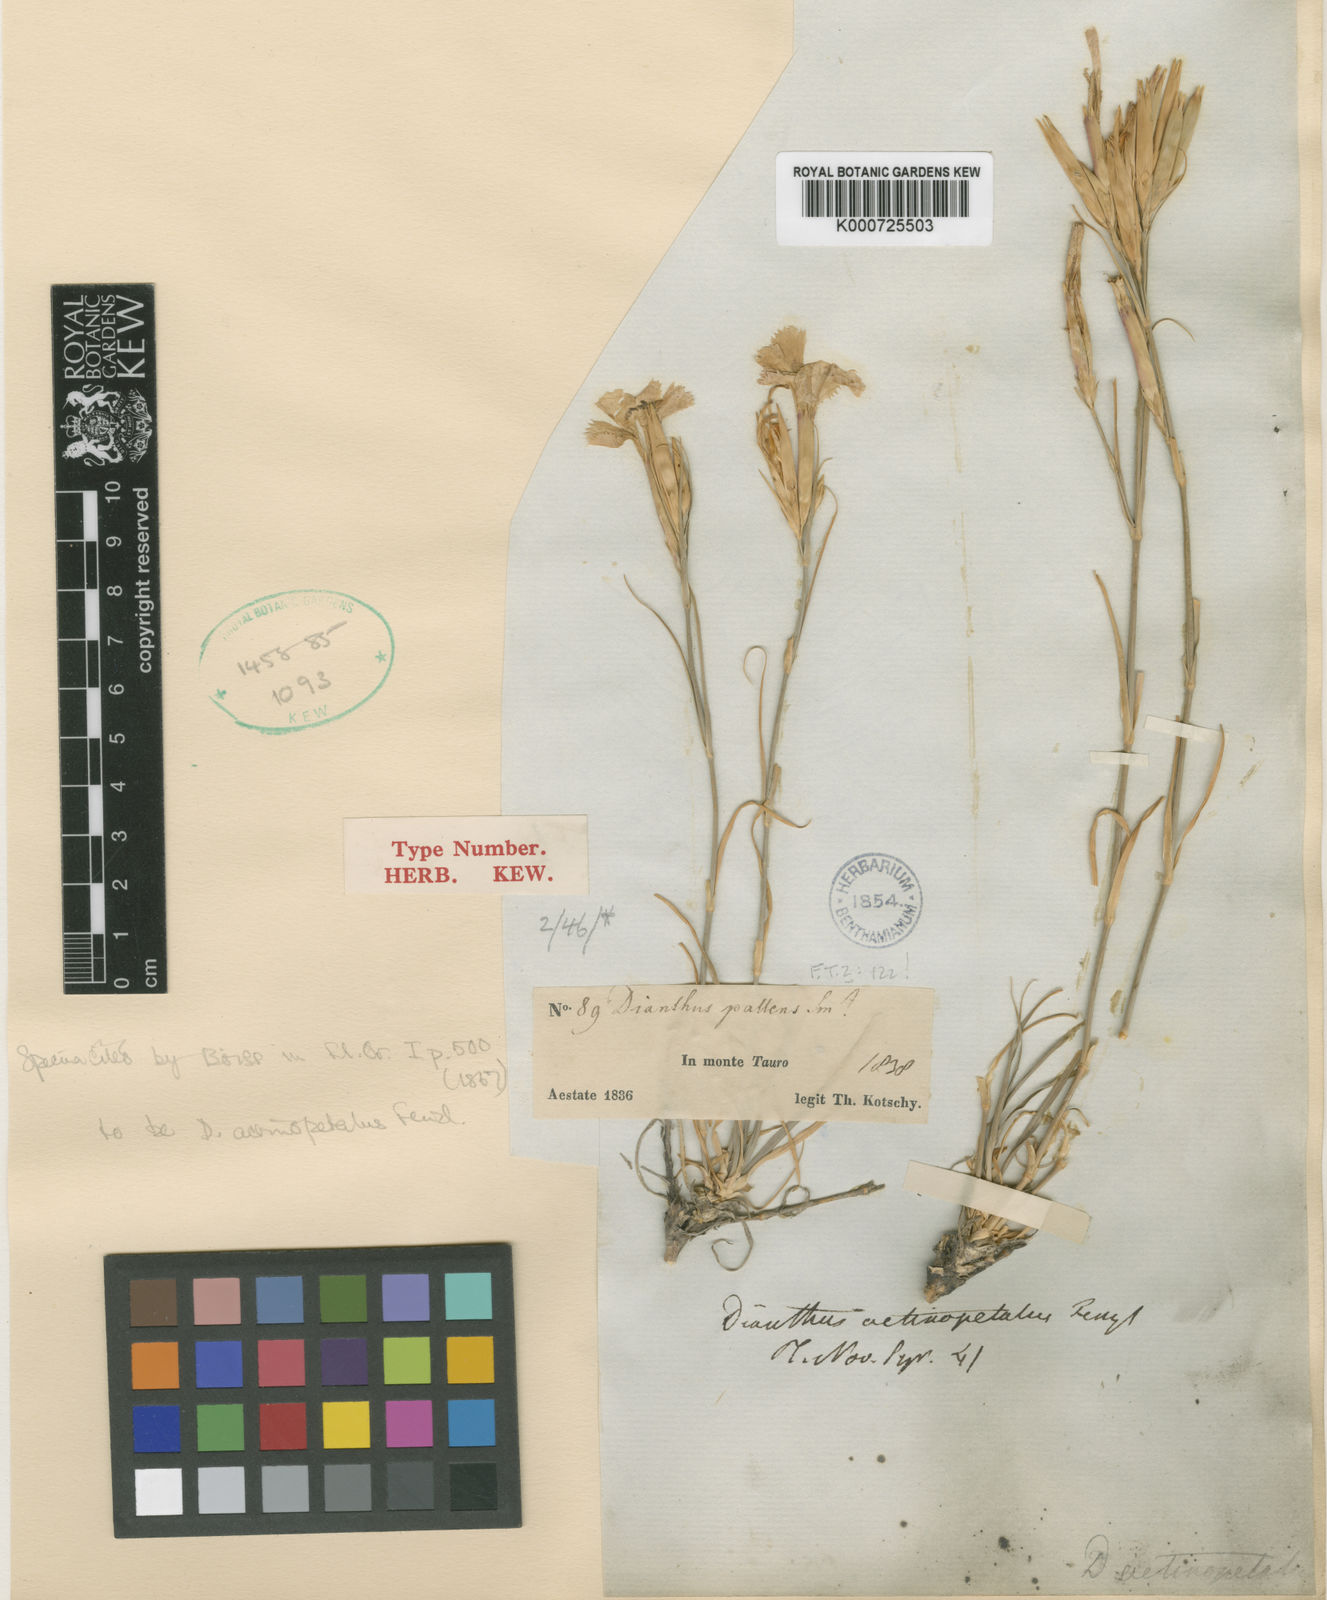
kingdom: Plantae
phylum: Tracheophyta
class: Magnoliopsida
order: Caryophyllales
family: Caryophyllaceae
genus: Dianthus
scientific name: Dianthus
